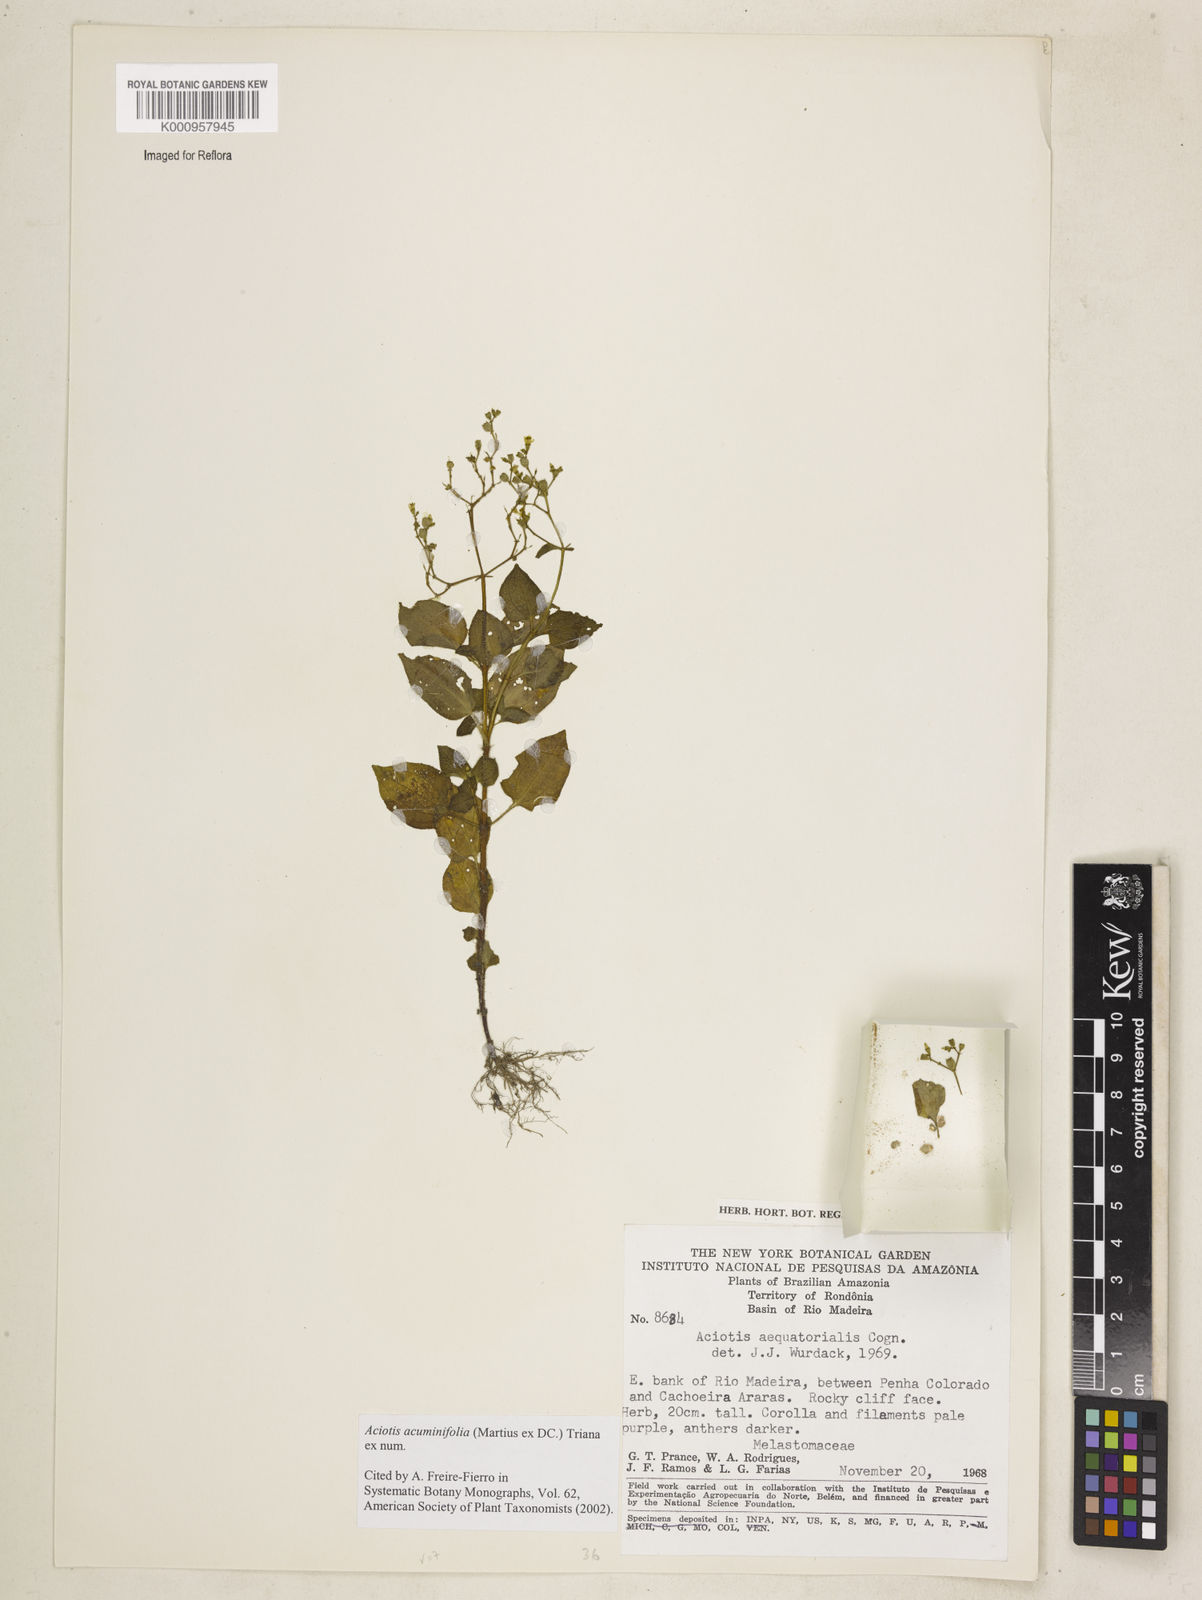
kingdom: Plantae
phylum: Tracheophyta
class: Magnoliopsida
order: Myrtales
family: Melastomataceae
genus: Aciotis
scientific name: Aciotis acuminifolia
